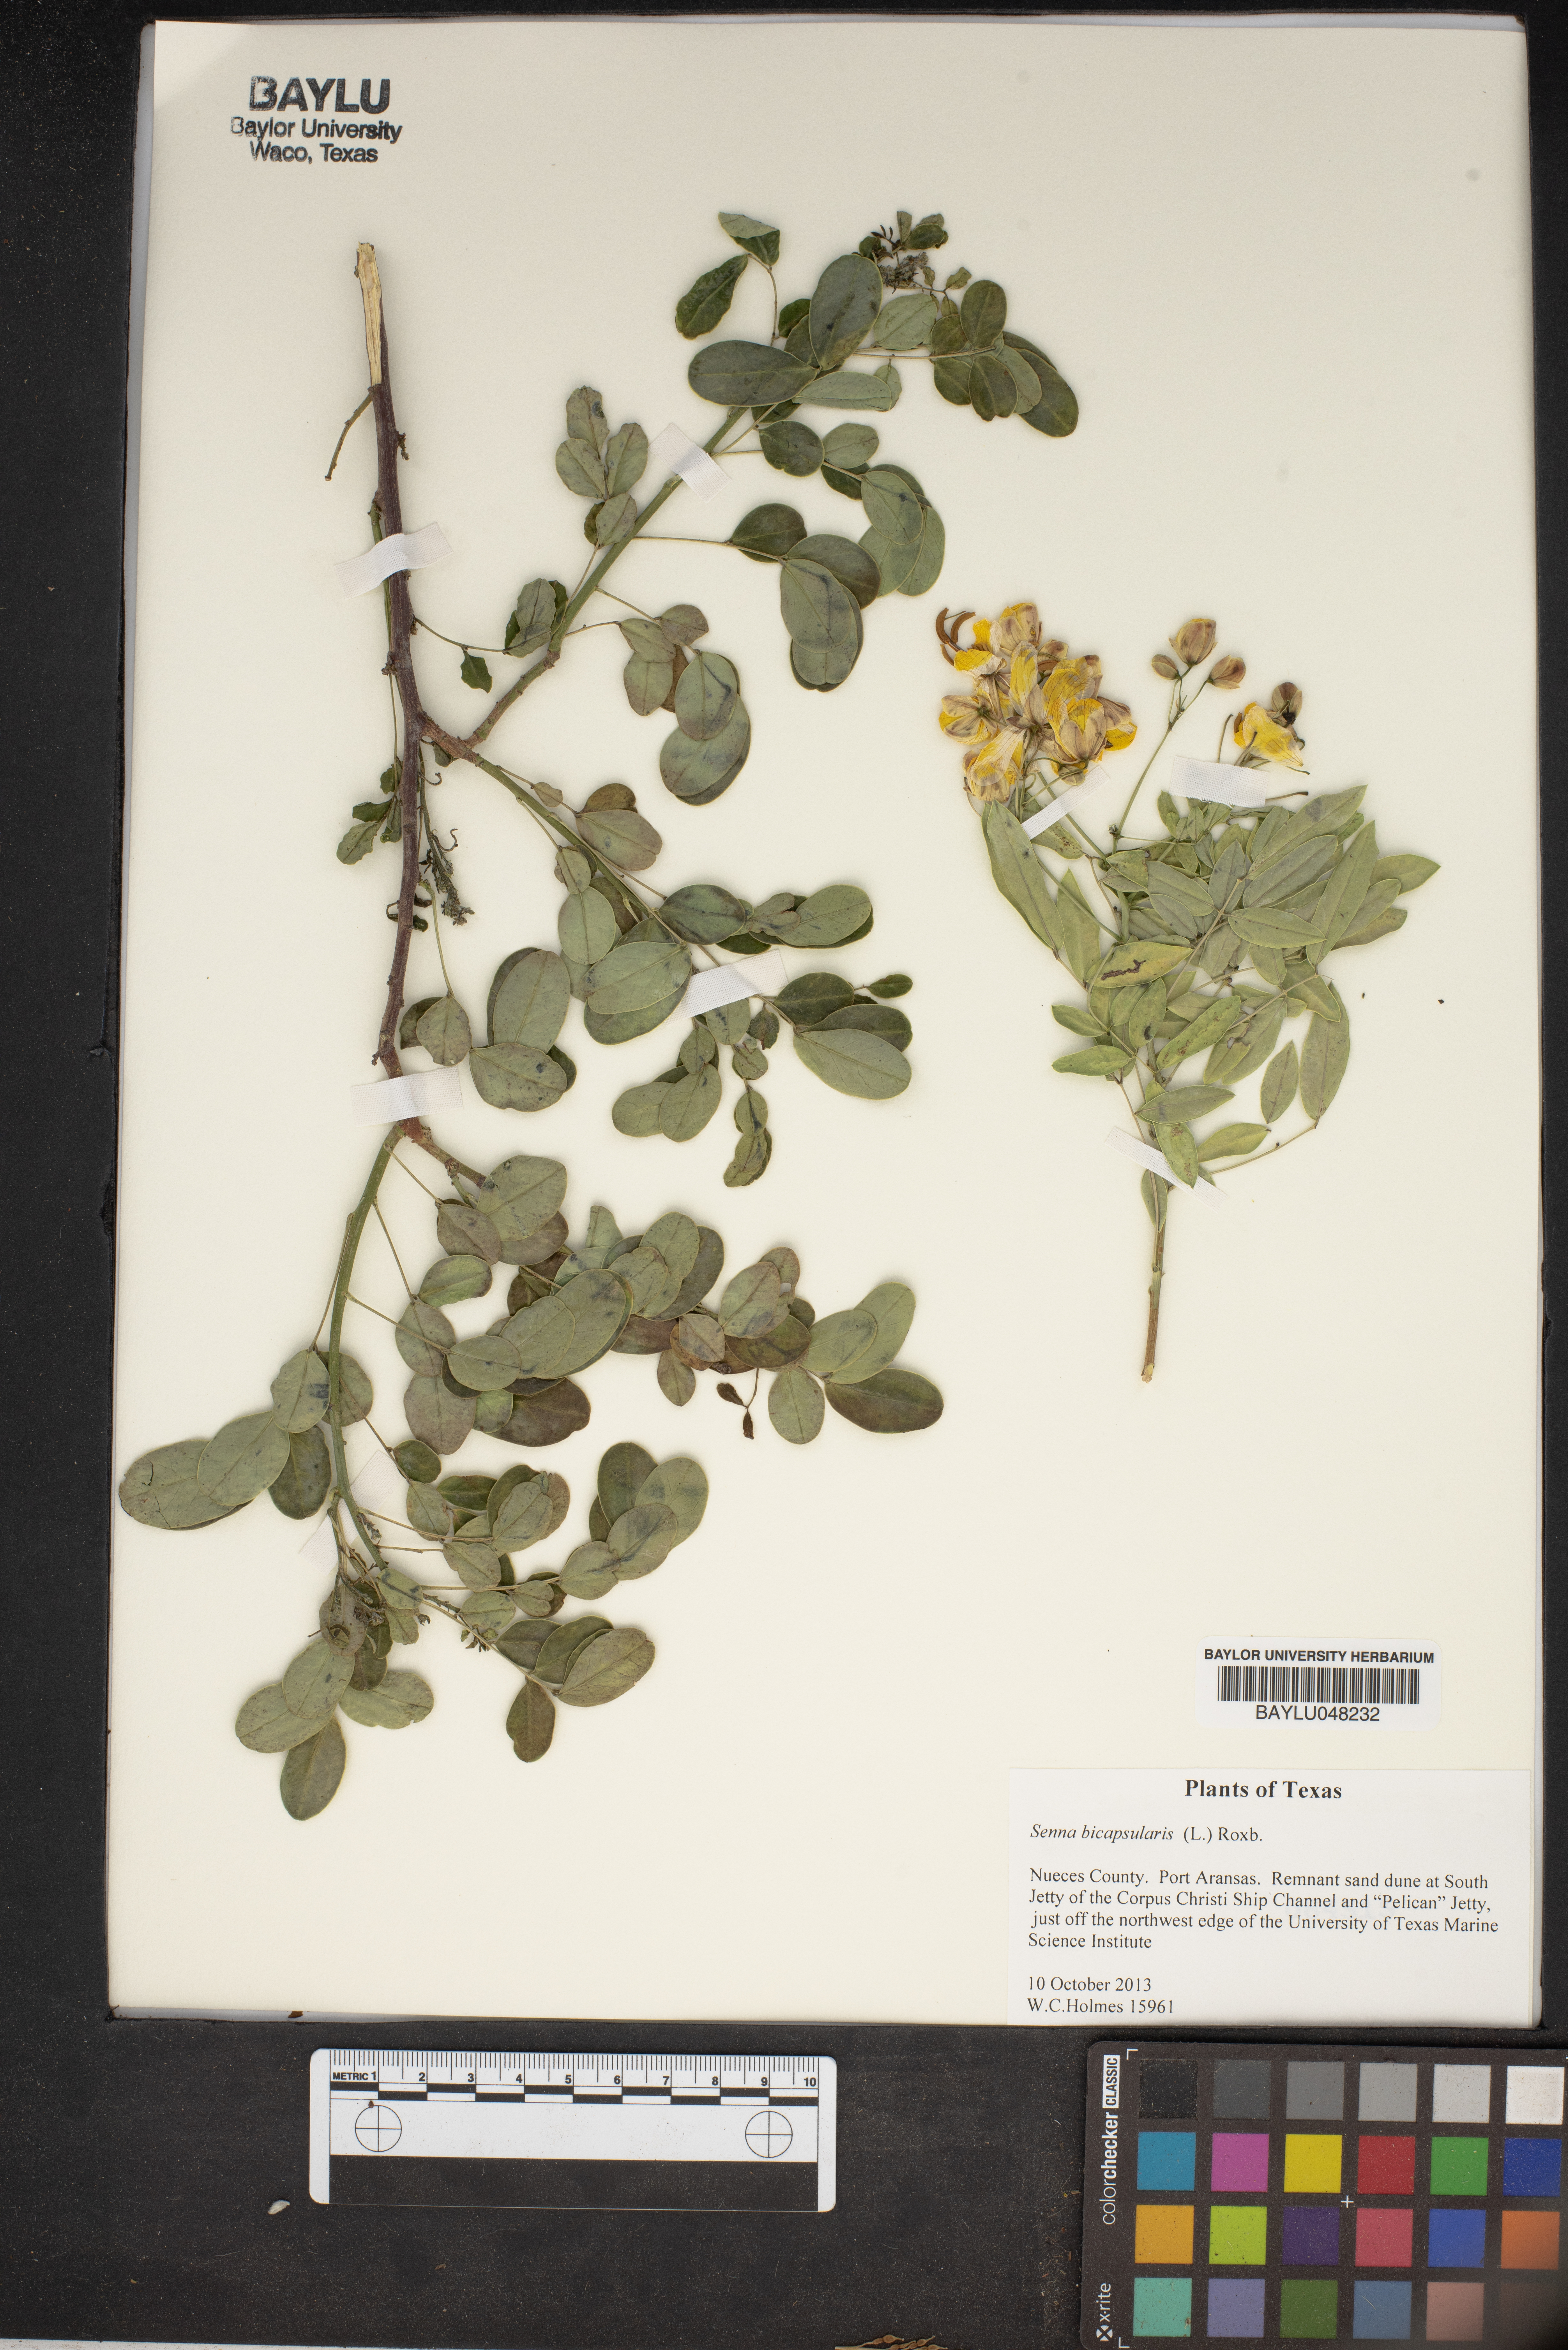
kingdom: Plantae
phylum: Tracheophyta
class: Magnoliopsida
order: Fabales
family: Fabaceae
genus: Senna
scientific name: Senna bicapsularis
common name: Christmasbush
